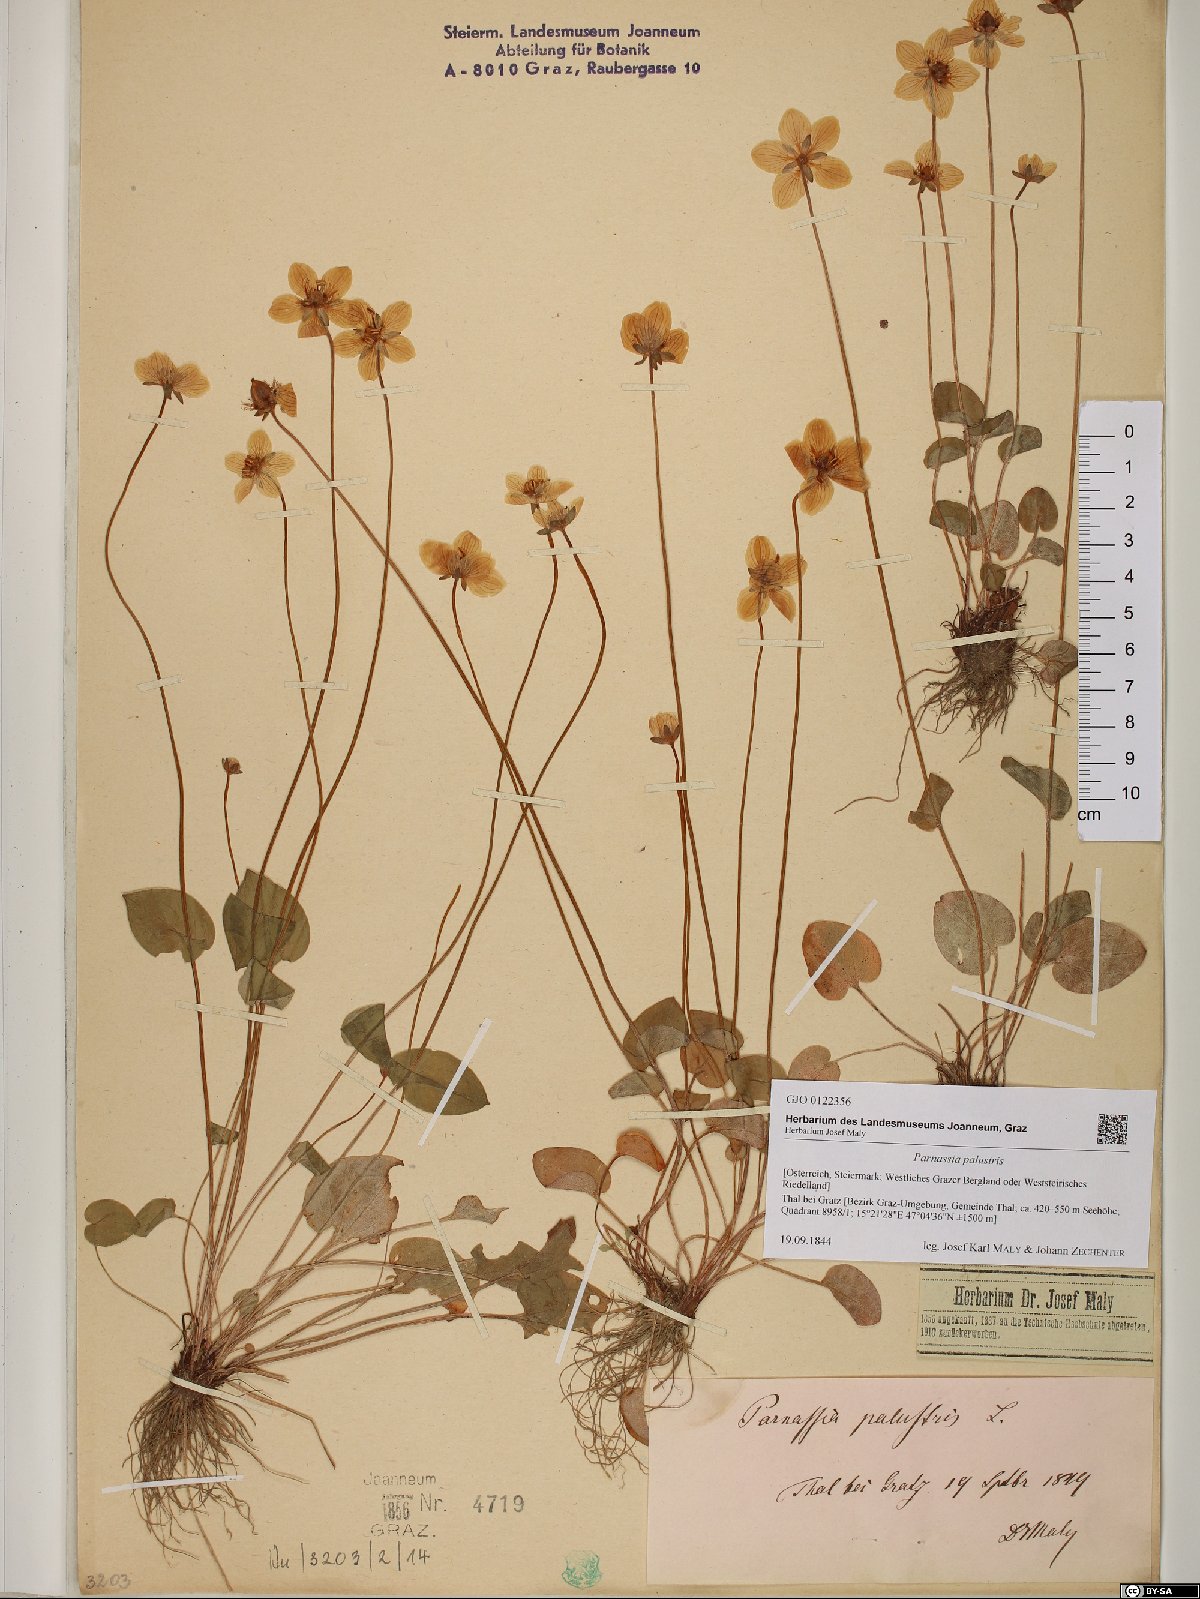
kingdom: Plantae
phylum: Tracheophyta
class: Magnoliopsida
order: Celastrales
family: Parnassiaceae
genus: Parnassia
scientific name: Parnassia palustris
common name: Grass-of-parnassus
